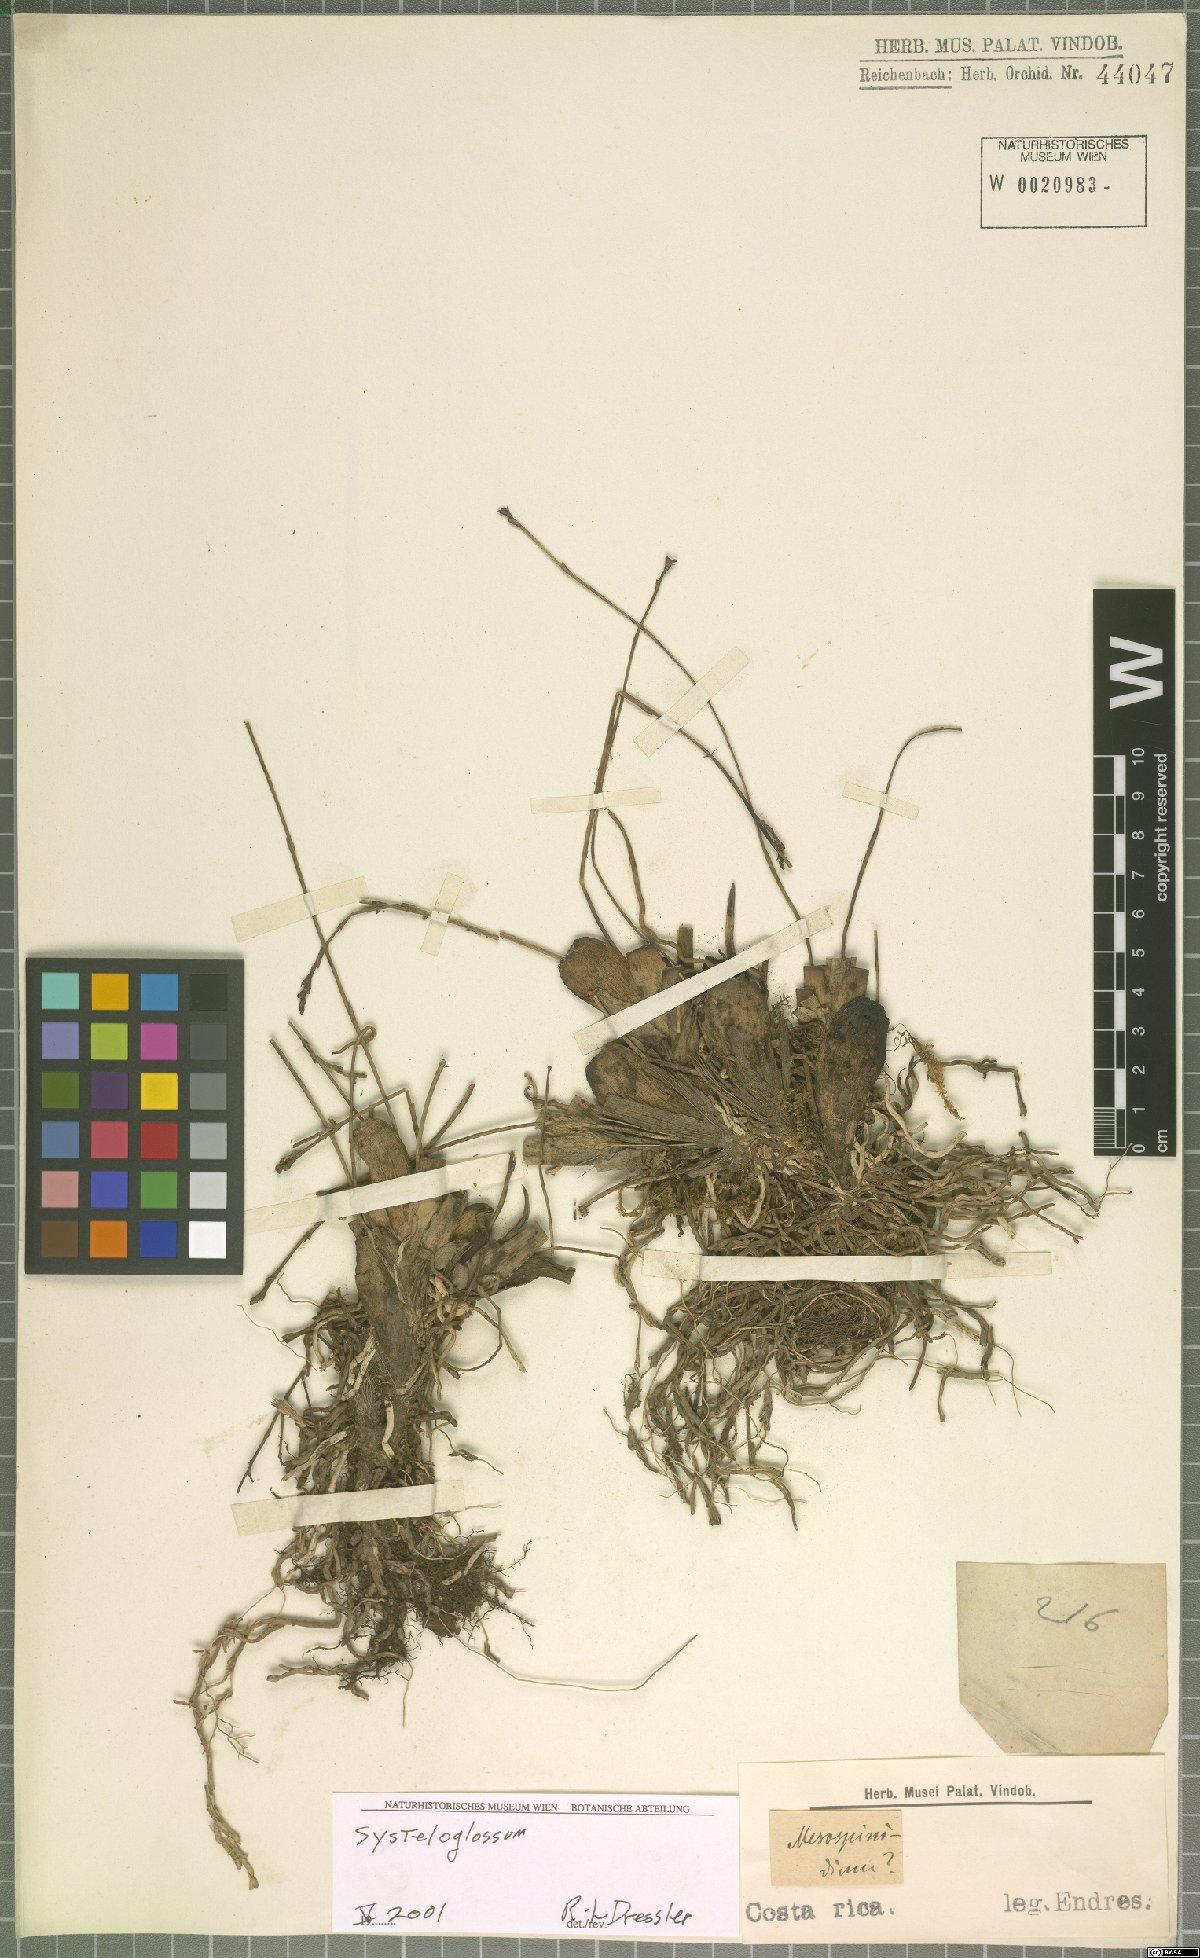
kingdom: Plantae
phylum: Tracheophyta
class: Liliopsida
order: Asparagales
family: Orchidaceae
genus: Systeloglossum
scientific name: Systeloglossum
